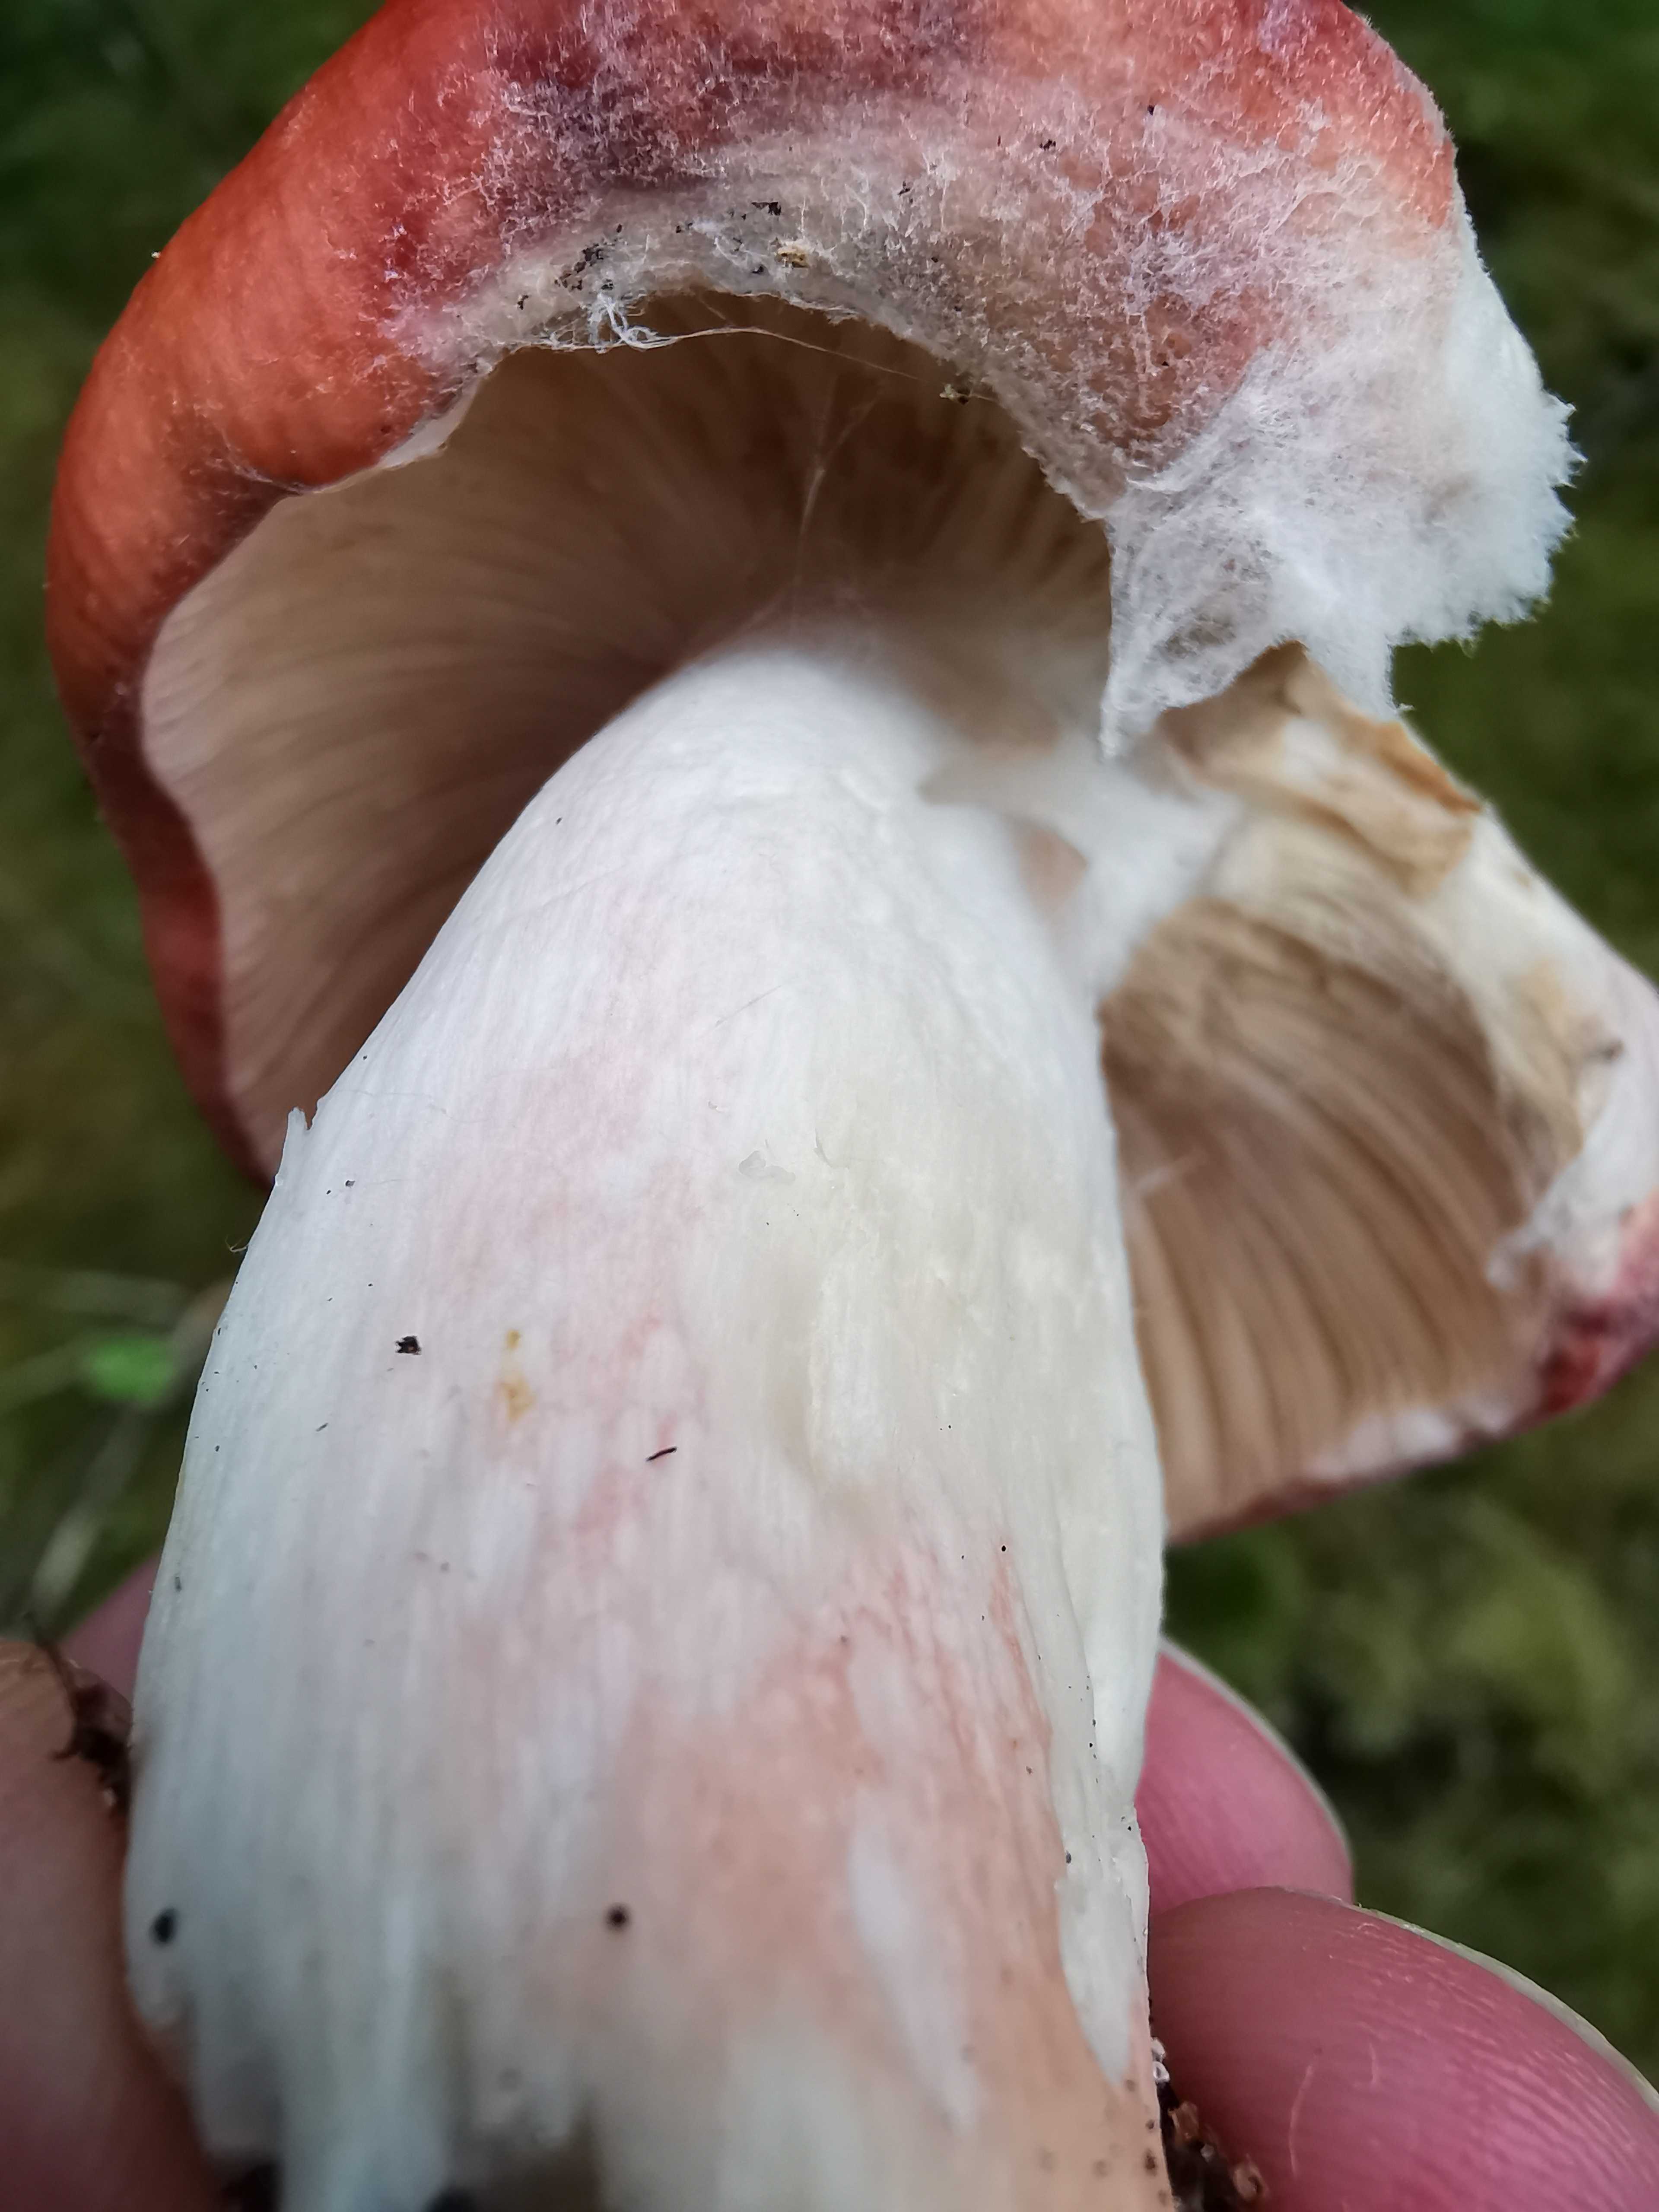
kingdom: Fungi
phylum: Basidiomycota
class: Agaricomycetes
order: Russulales
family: Russulaceae
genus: Russula
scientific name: Russula paludosa
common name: prægtig skørhat
